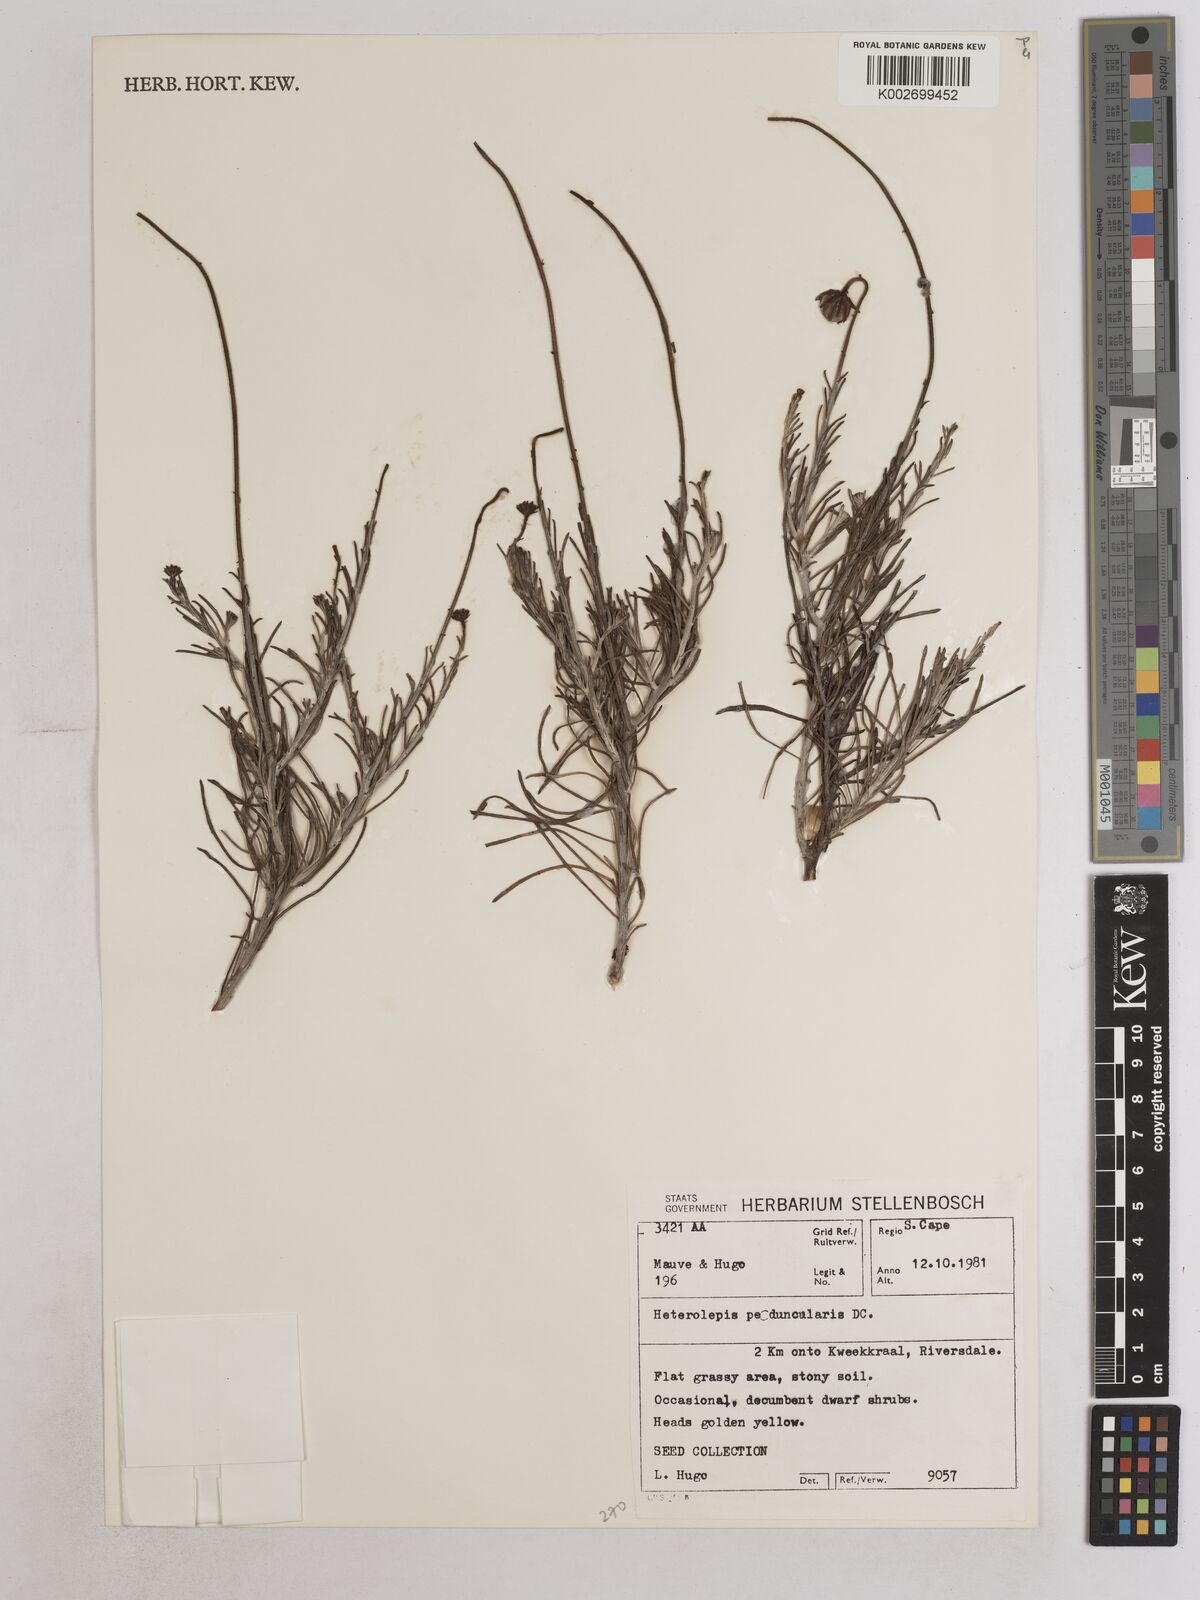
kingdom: Plantae
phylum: Tracheophyta
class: Magnoliopsida
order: Asterales
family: Asteraceae
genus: Heterolepis
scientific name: Heterolepis peduncularis
